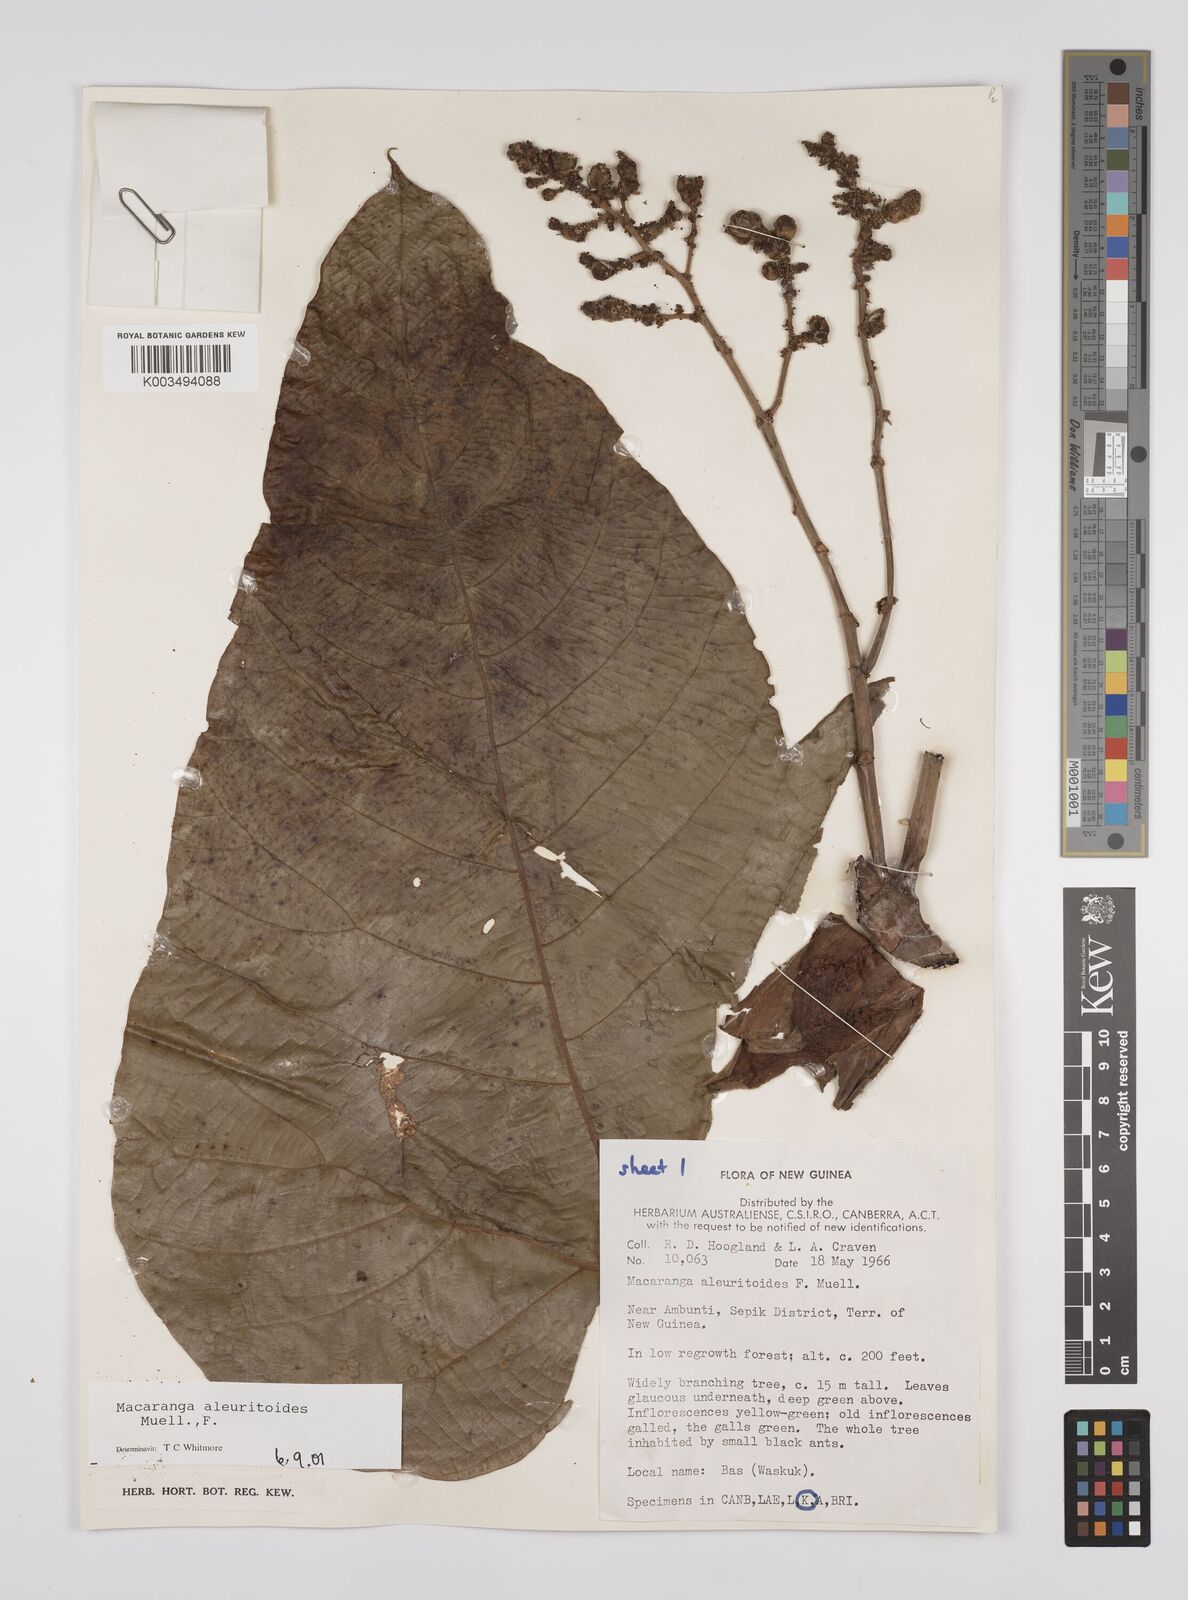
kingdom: Plantae
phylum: Tracheophyta
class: Magnoliopsida
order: Malpighiales
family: Euphorbiaceae
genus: Macaranga
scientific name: Macaranga aleuritoides
